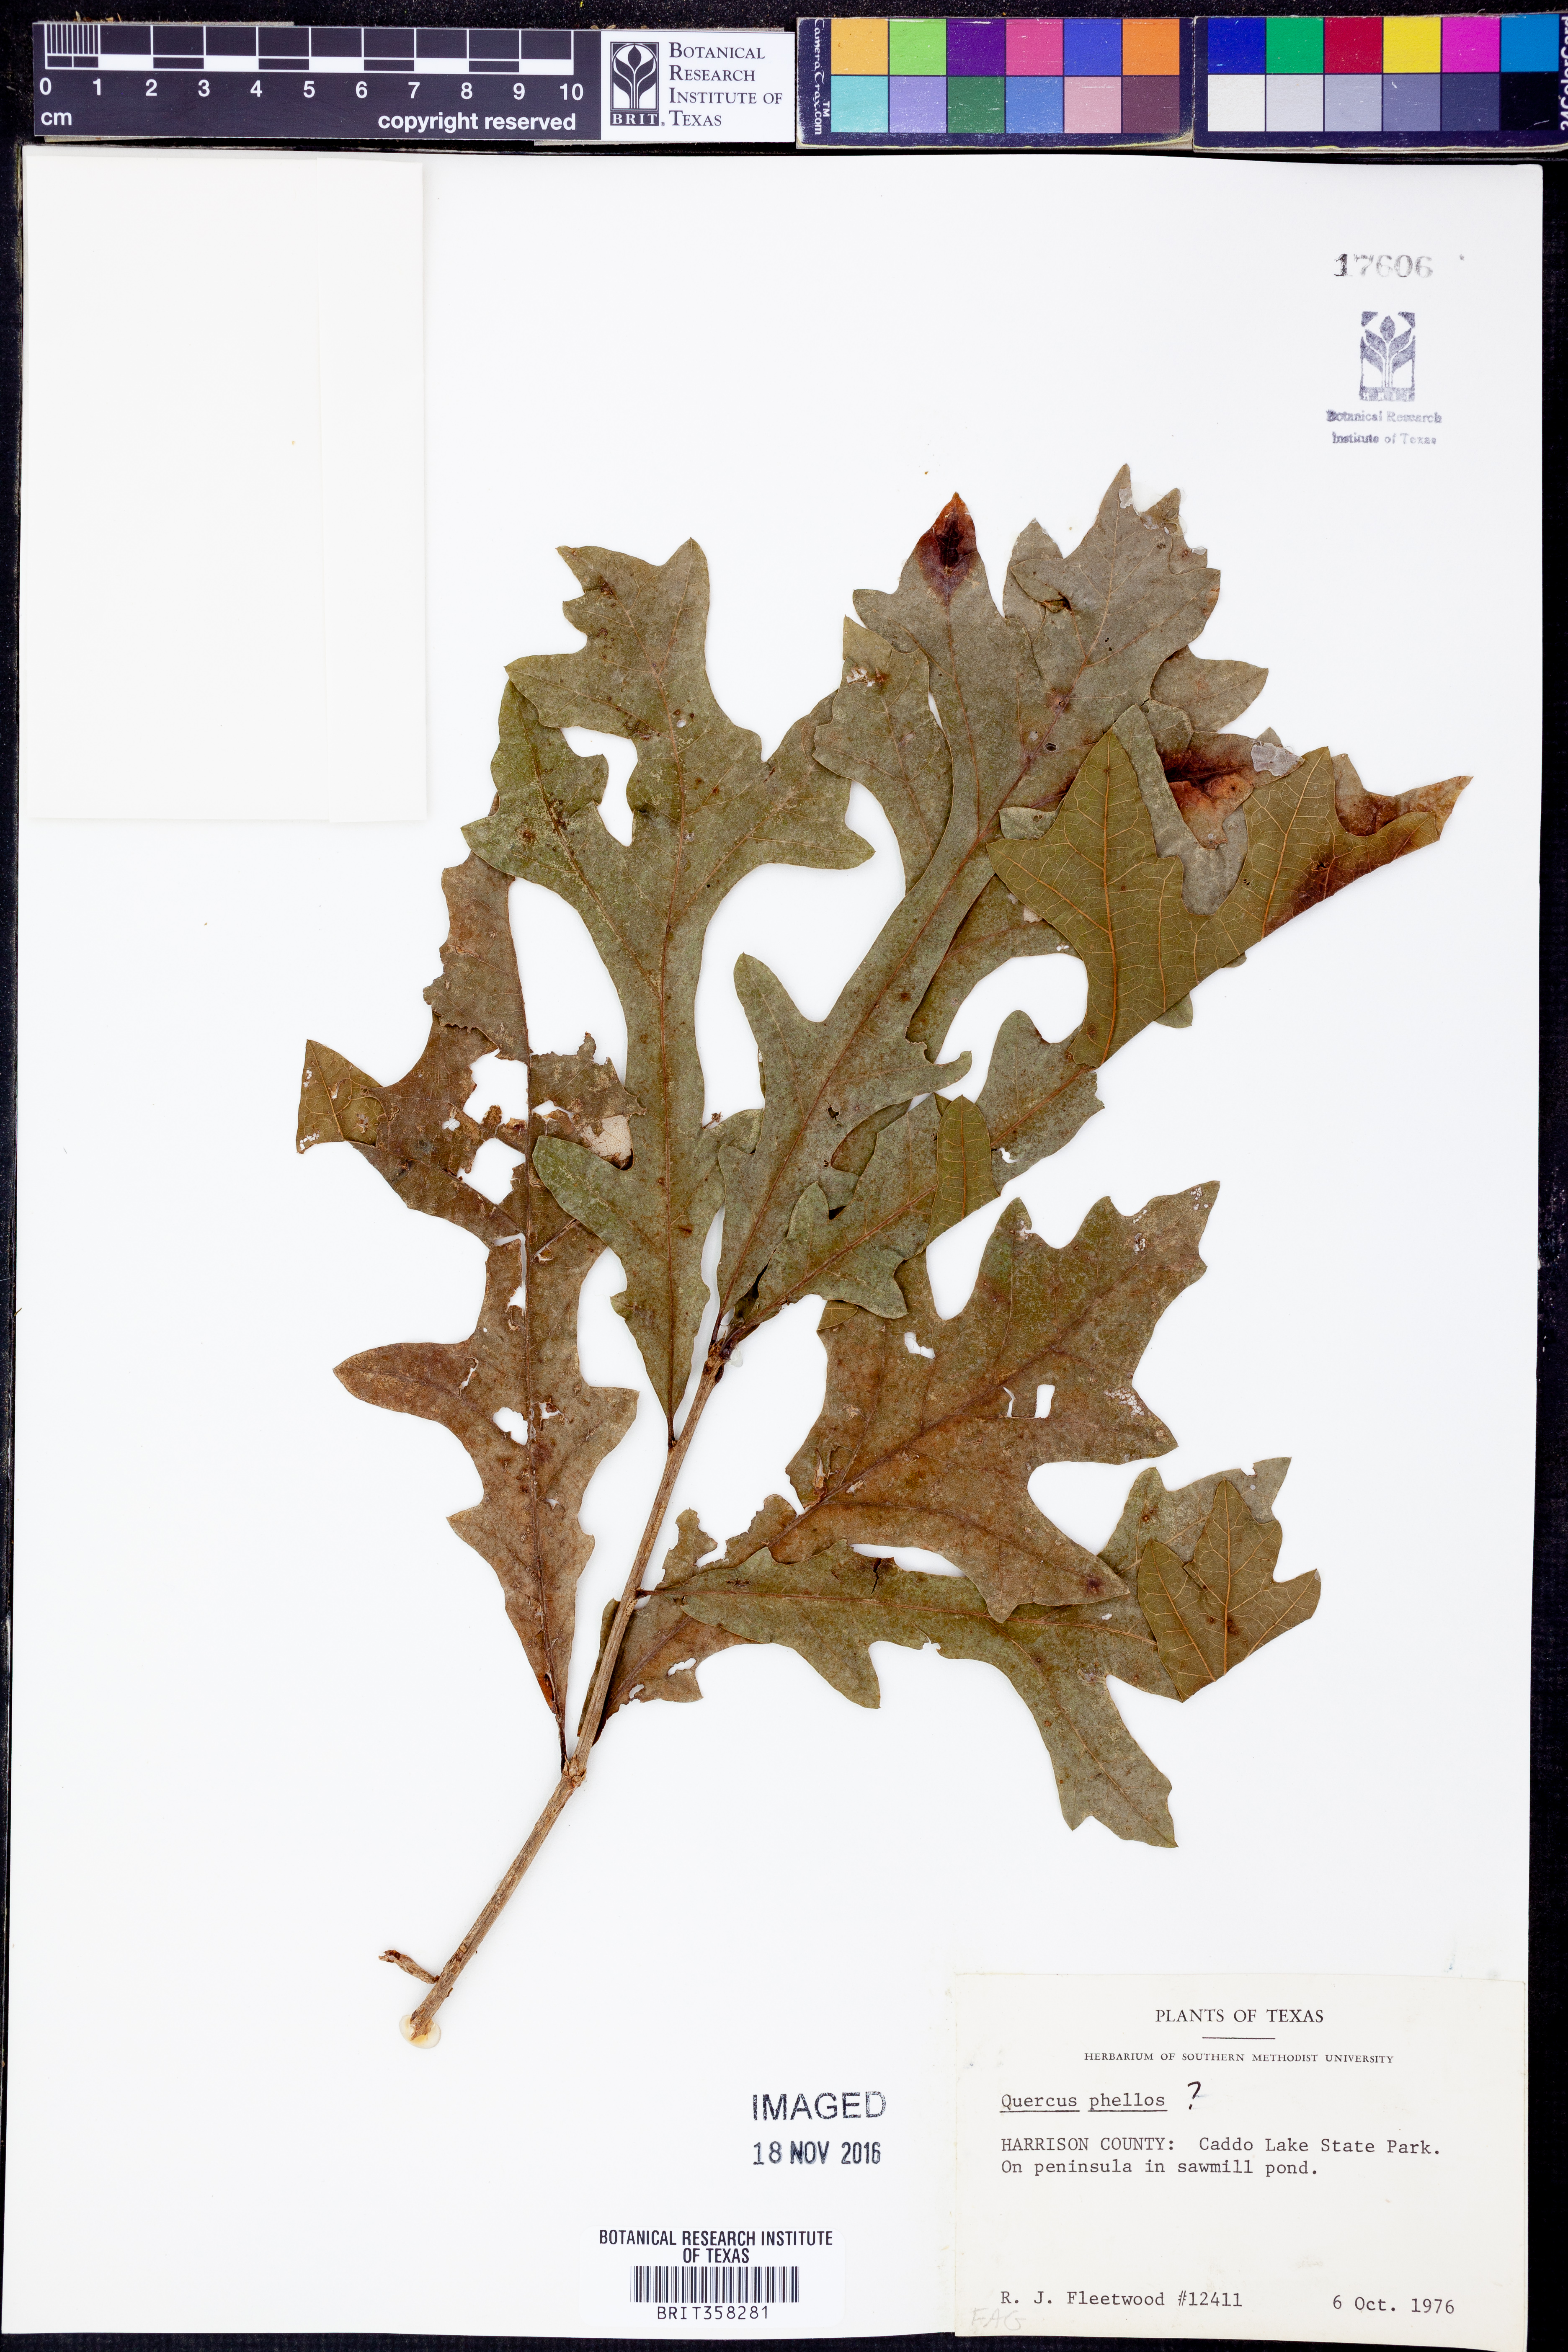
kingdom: Plantae
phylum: Tracheophyta
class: Magnoliopsida
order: Fagales
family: Fagaceae
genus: Quercus
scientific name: Quercus phellos
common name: Willow oak
